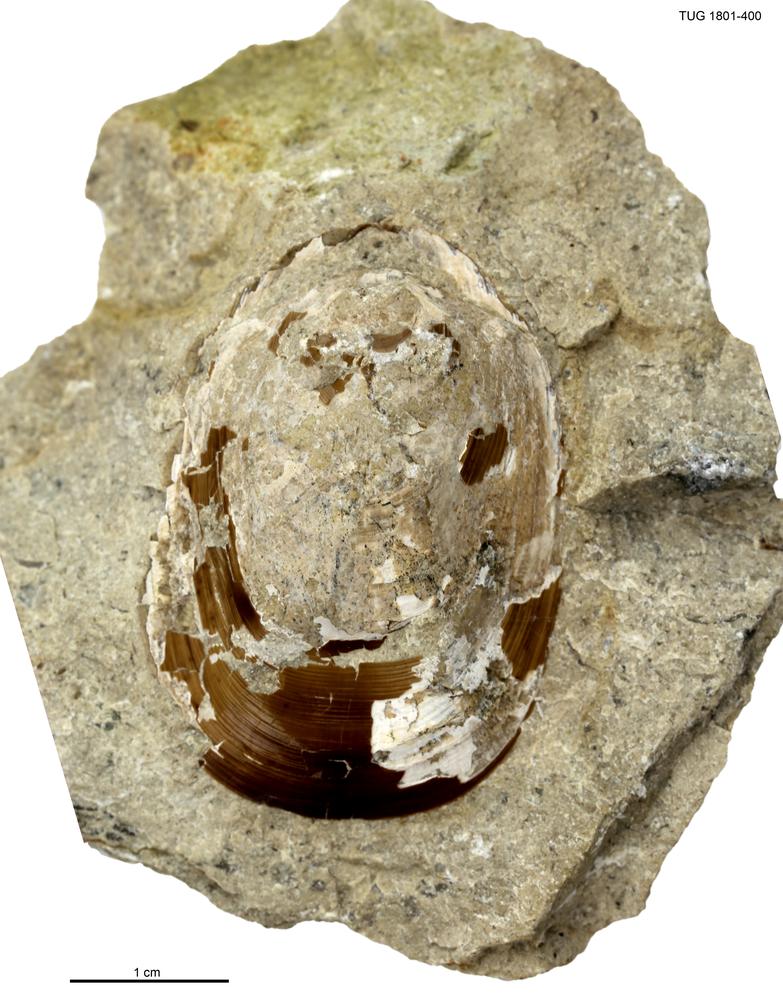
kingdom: Animalia
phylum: Brachiopoda
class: Lingulata
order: Lingulida
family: Pseudolingulidae
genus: Pseudolingula
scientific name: Pseudolingula Crania quadrata
